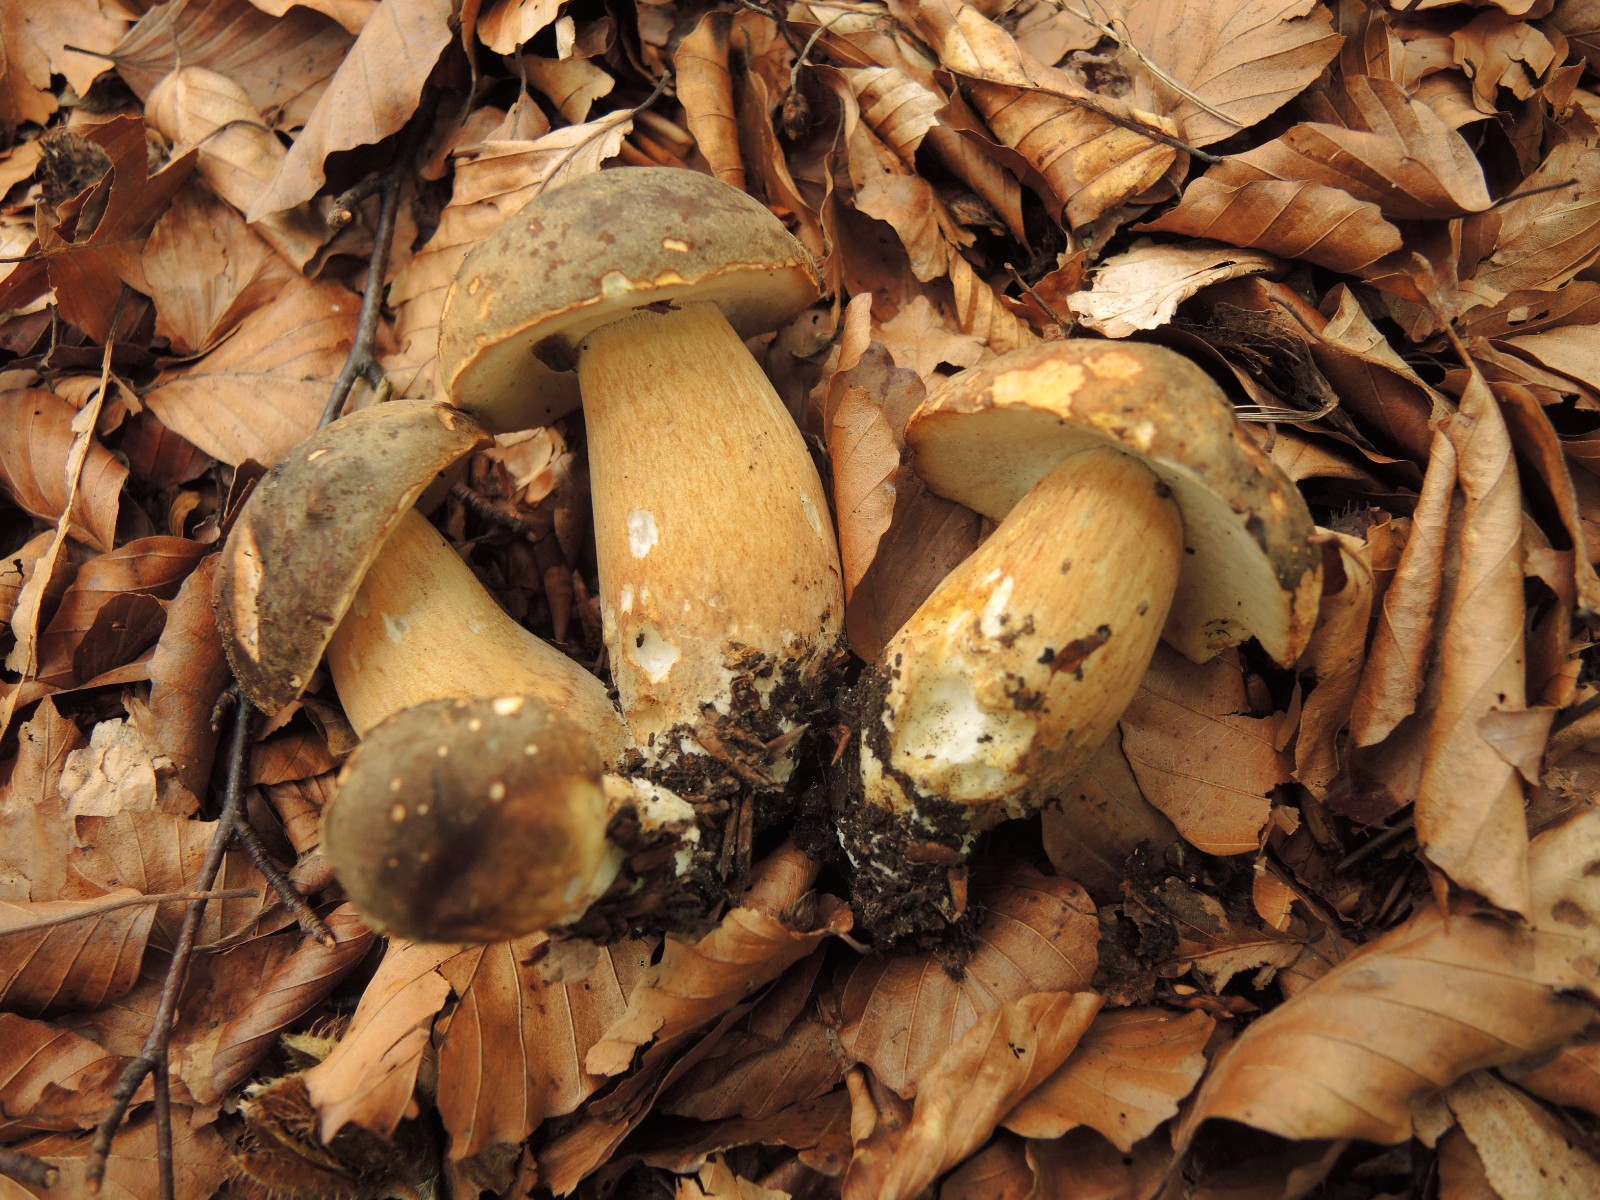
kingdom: Fungi
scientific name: Fungi
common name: bronze-rørhat
